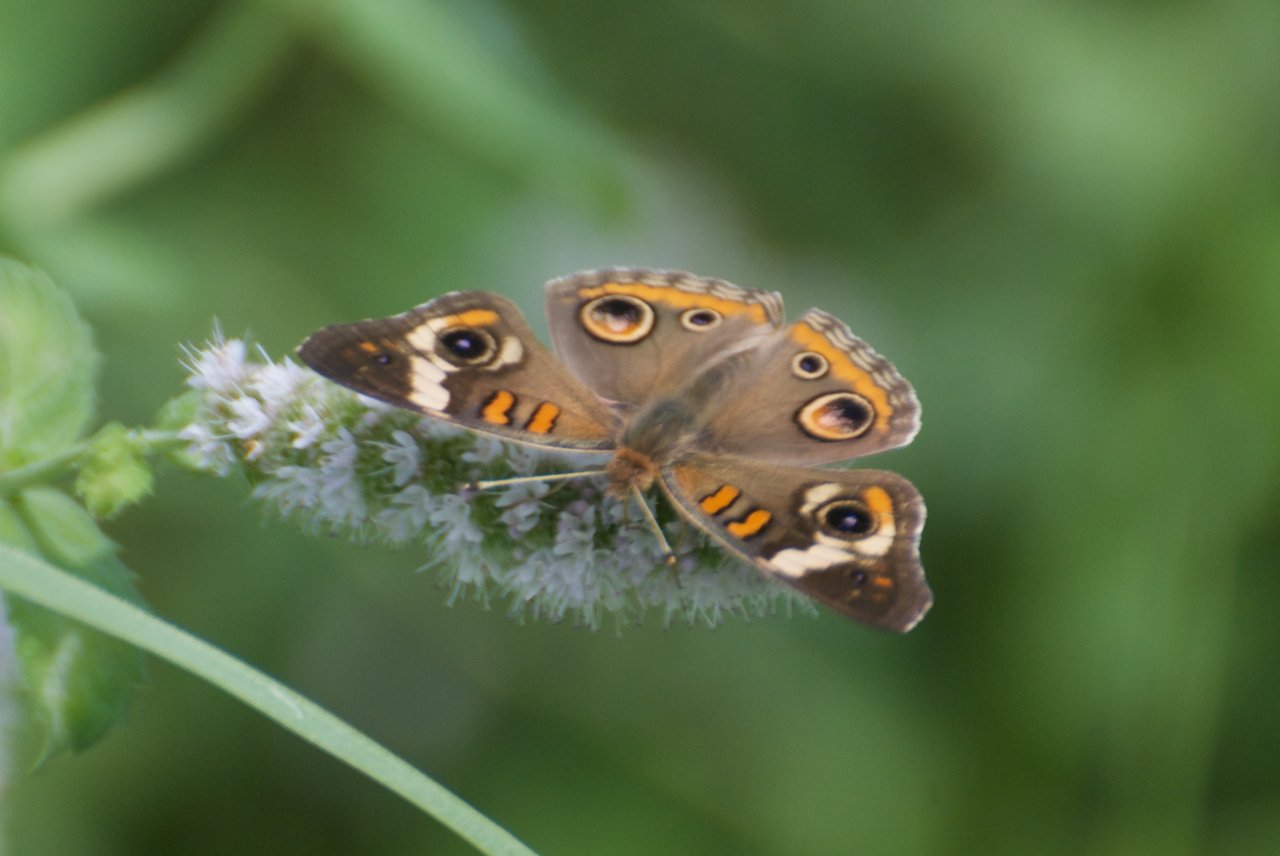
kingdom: Animalia
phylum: Arthropoda
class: Insecta
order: Lepidoptera
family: Nymphalidae
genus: Junonia
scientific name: Junonia coenia
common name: Common Buckeye
